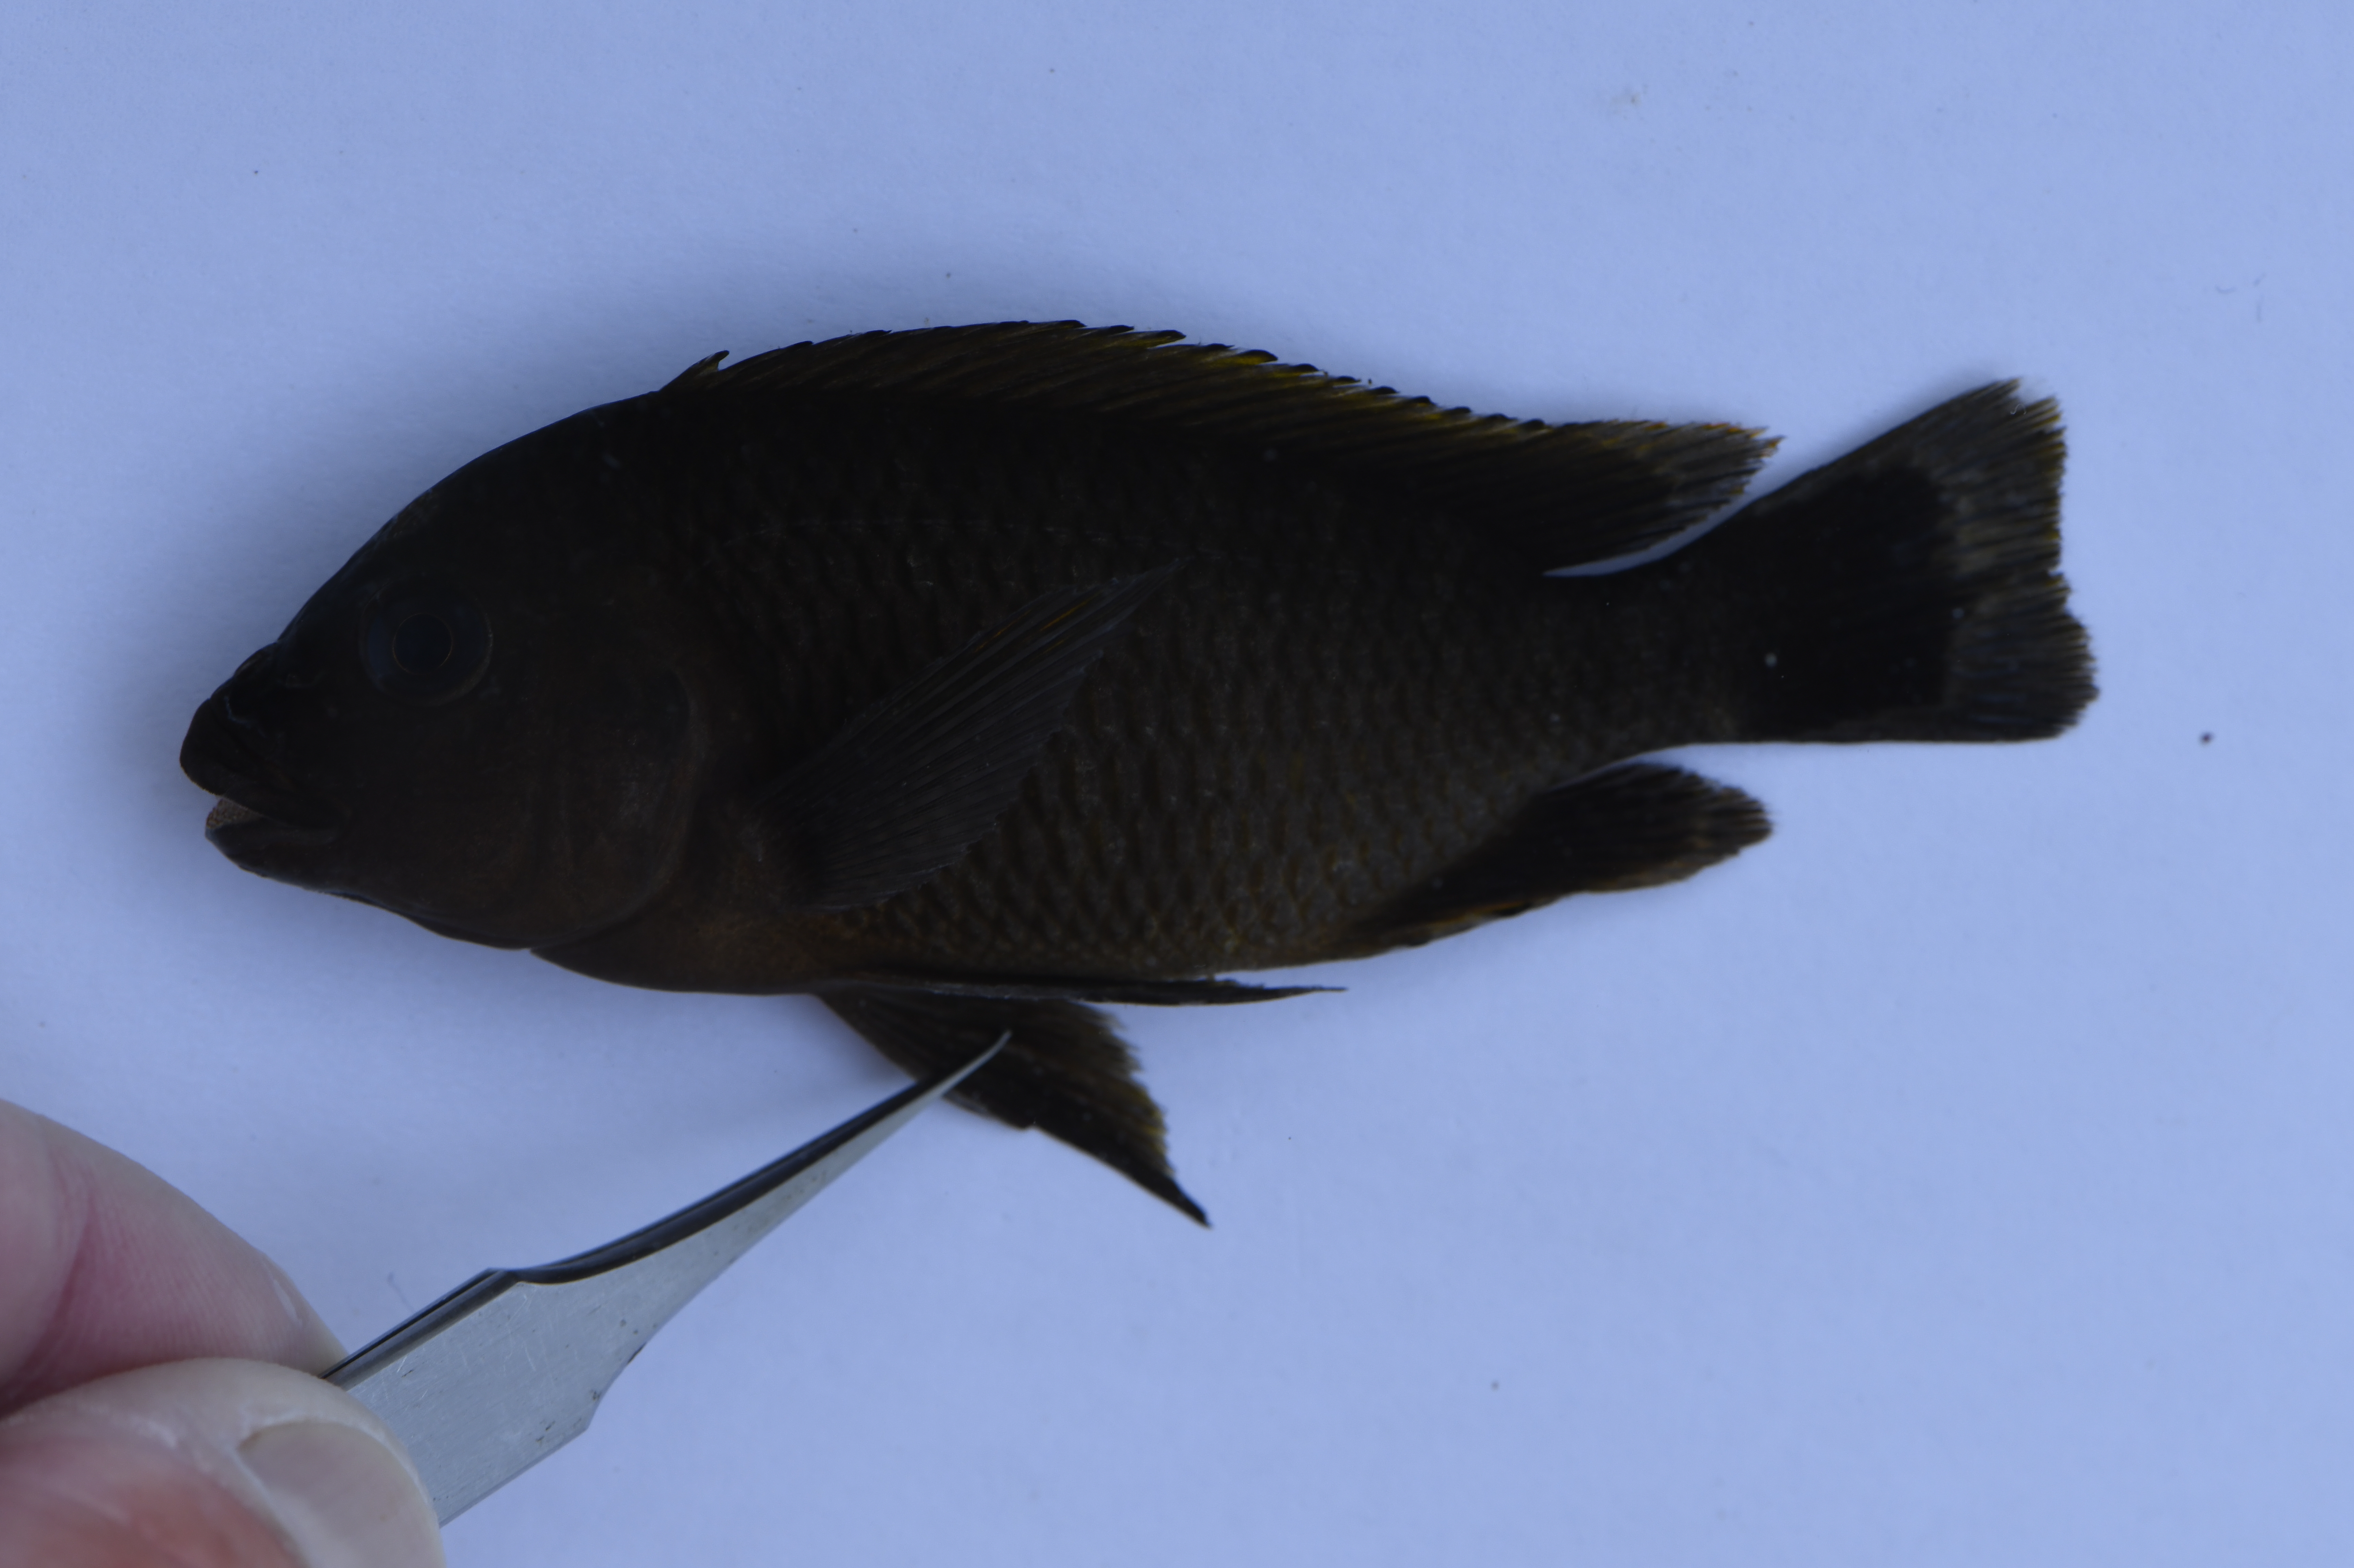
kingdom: Animalia
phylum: Chordata
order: Perciformes
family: Cichlidae
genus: Petrochromis
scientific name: Petrochromis famula
